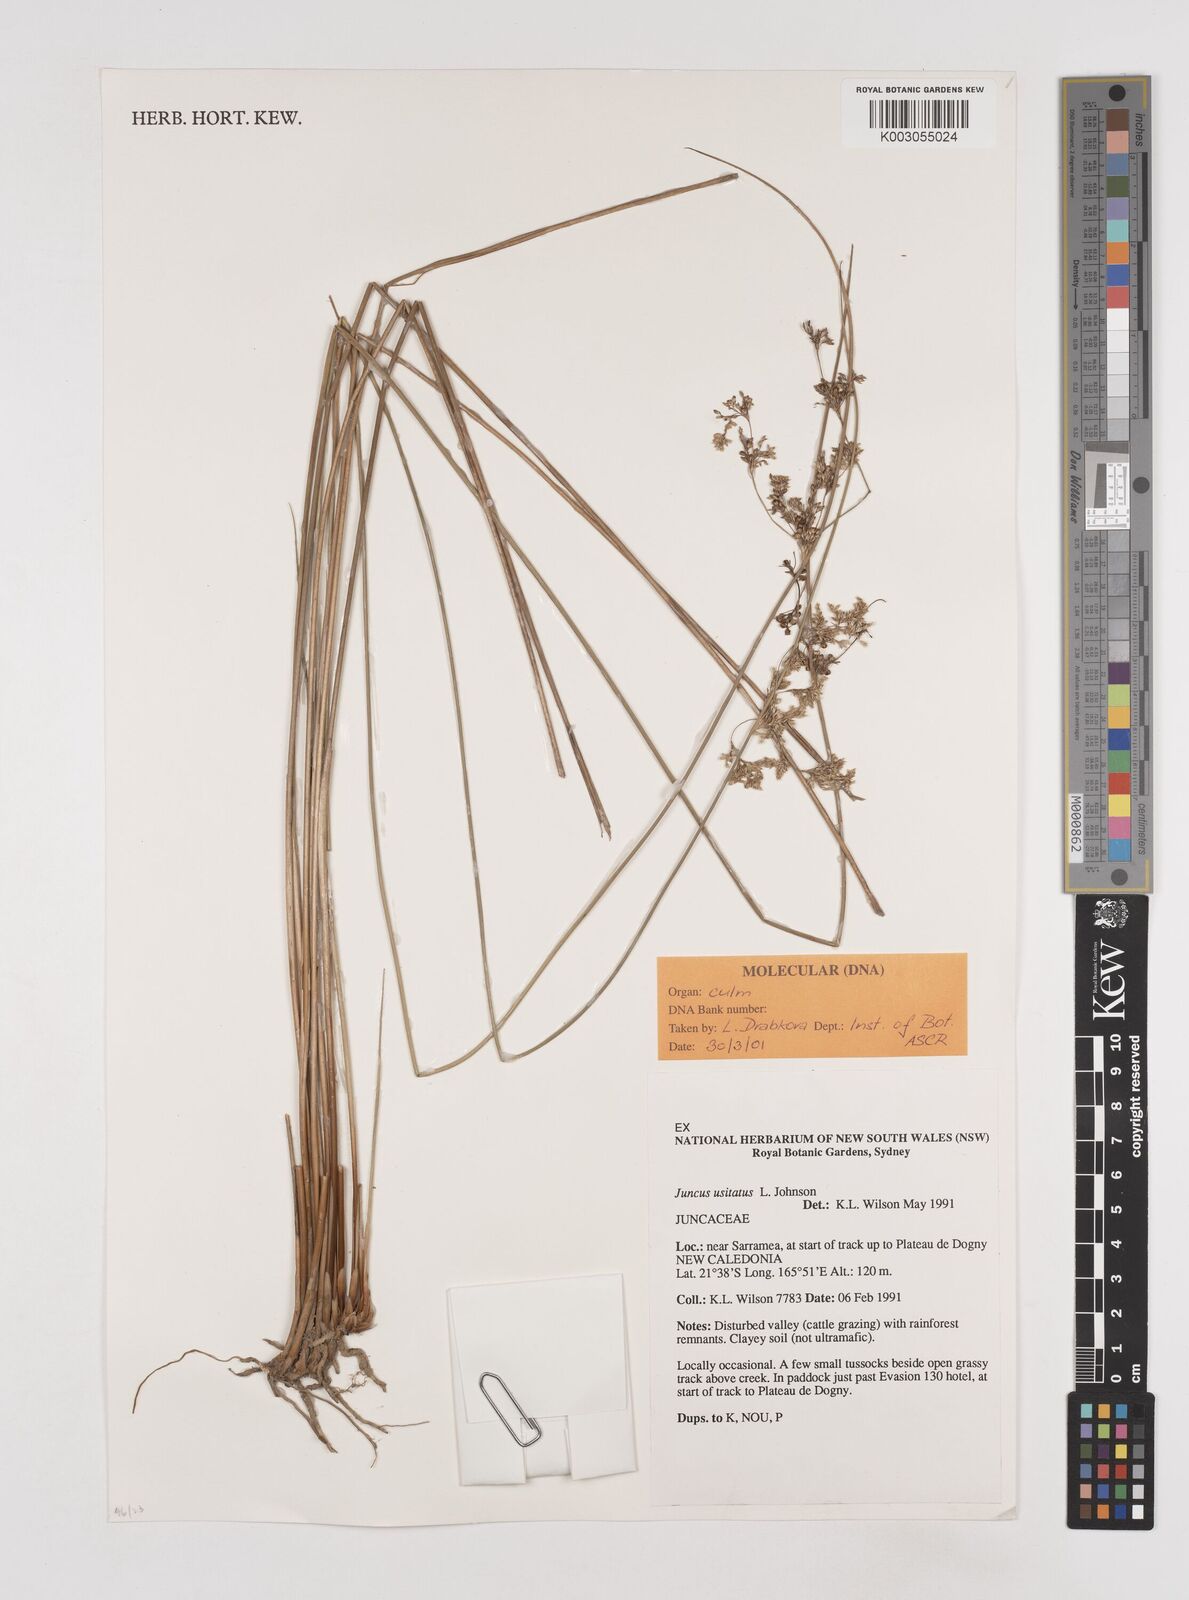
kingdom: Plantae
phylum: Tracheophyta
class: Liliopsida
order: Poales
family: Juncaceae
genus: Juncus
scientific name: Juncus usitatus
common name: Rush
